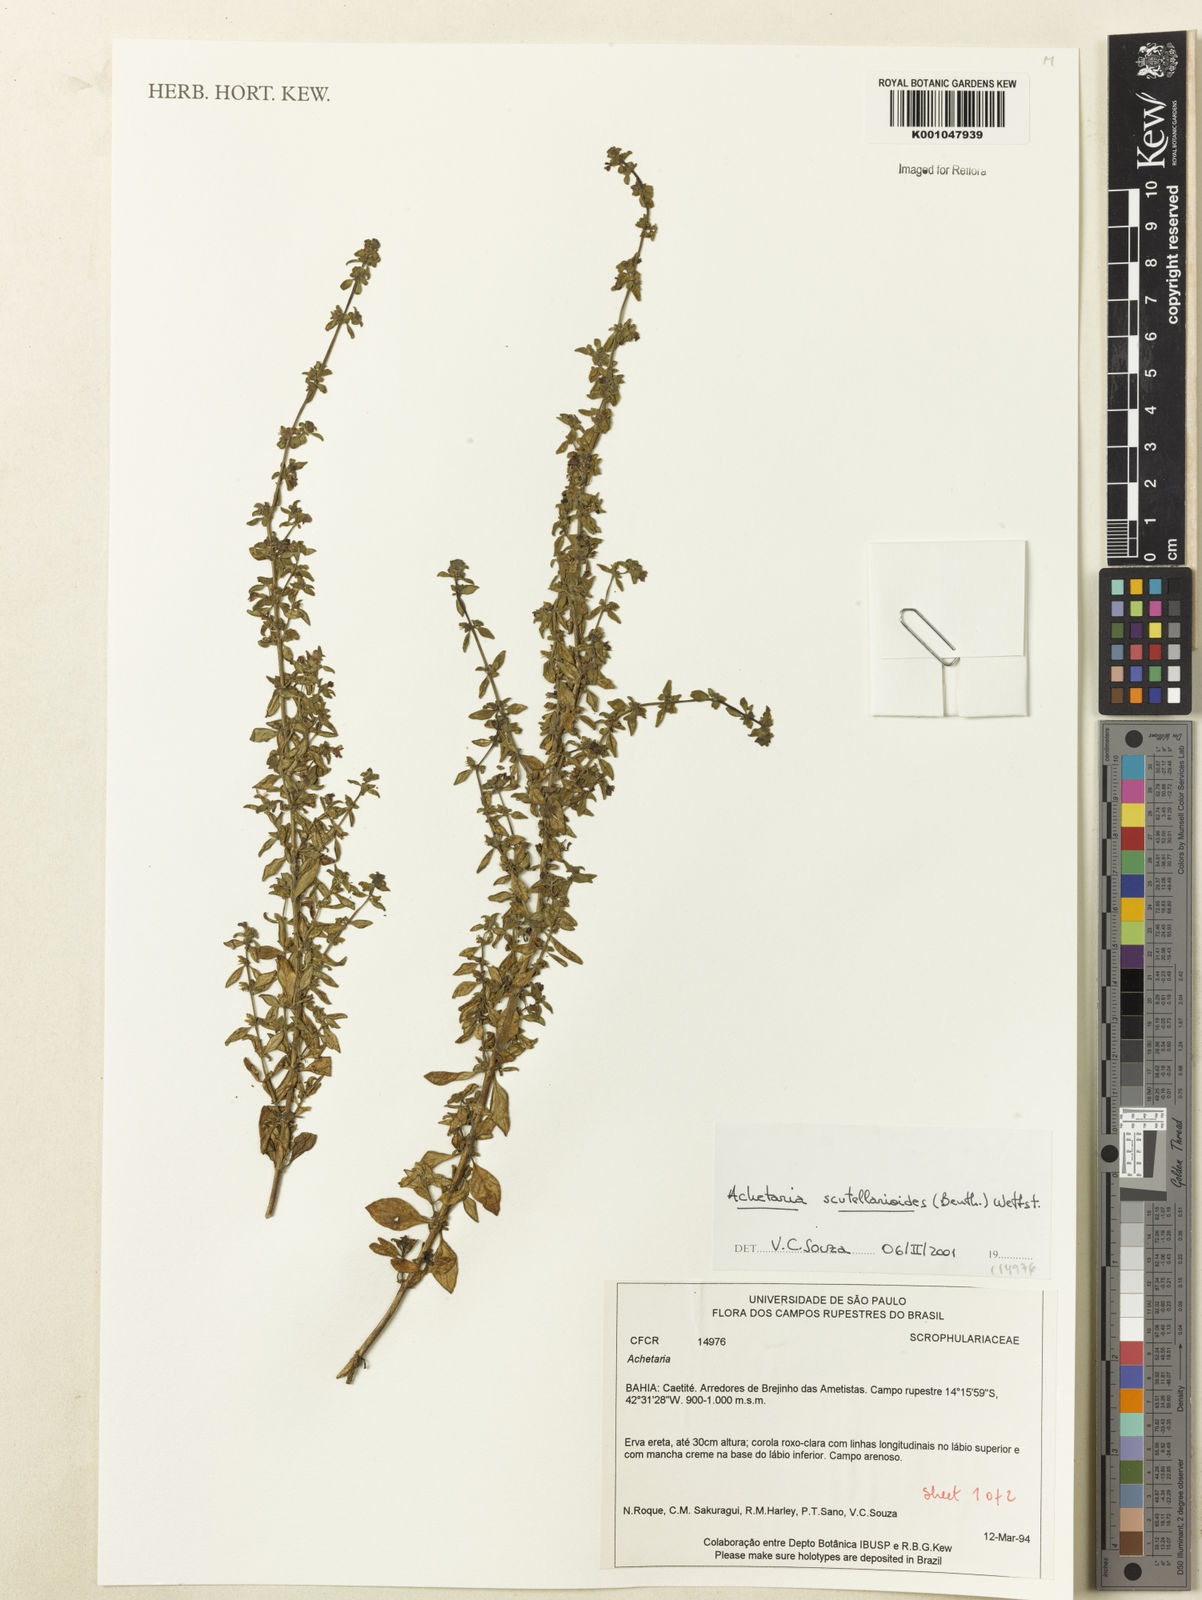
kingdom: Plantae
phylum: Tracheophyta
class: Magnoliopsida
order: Lamiales
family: Plantaginaceae
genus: Matourea
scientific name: Matourea scutellarioides
